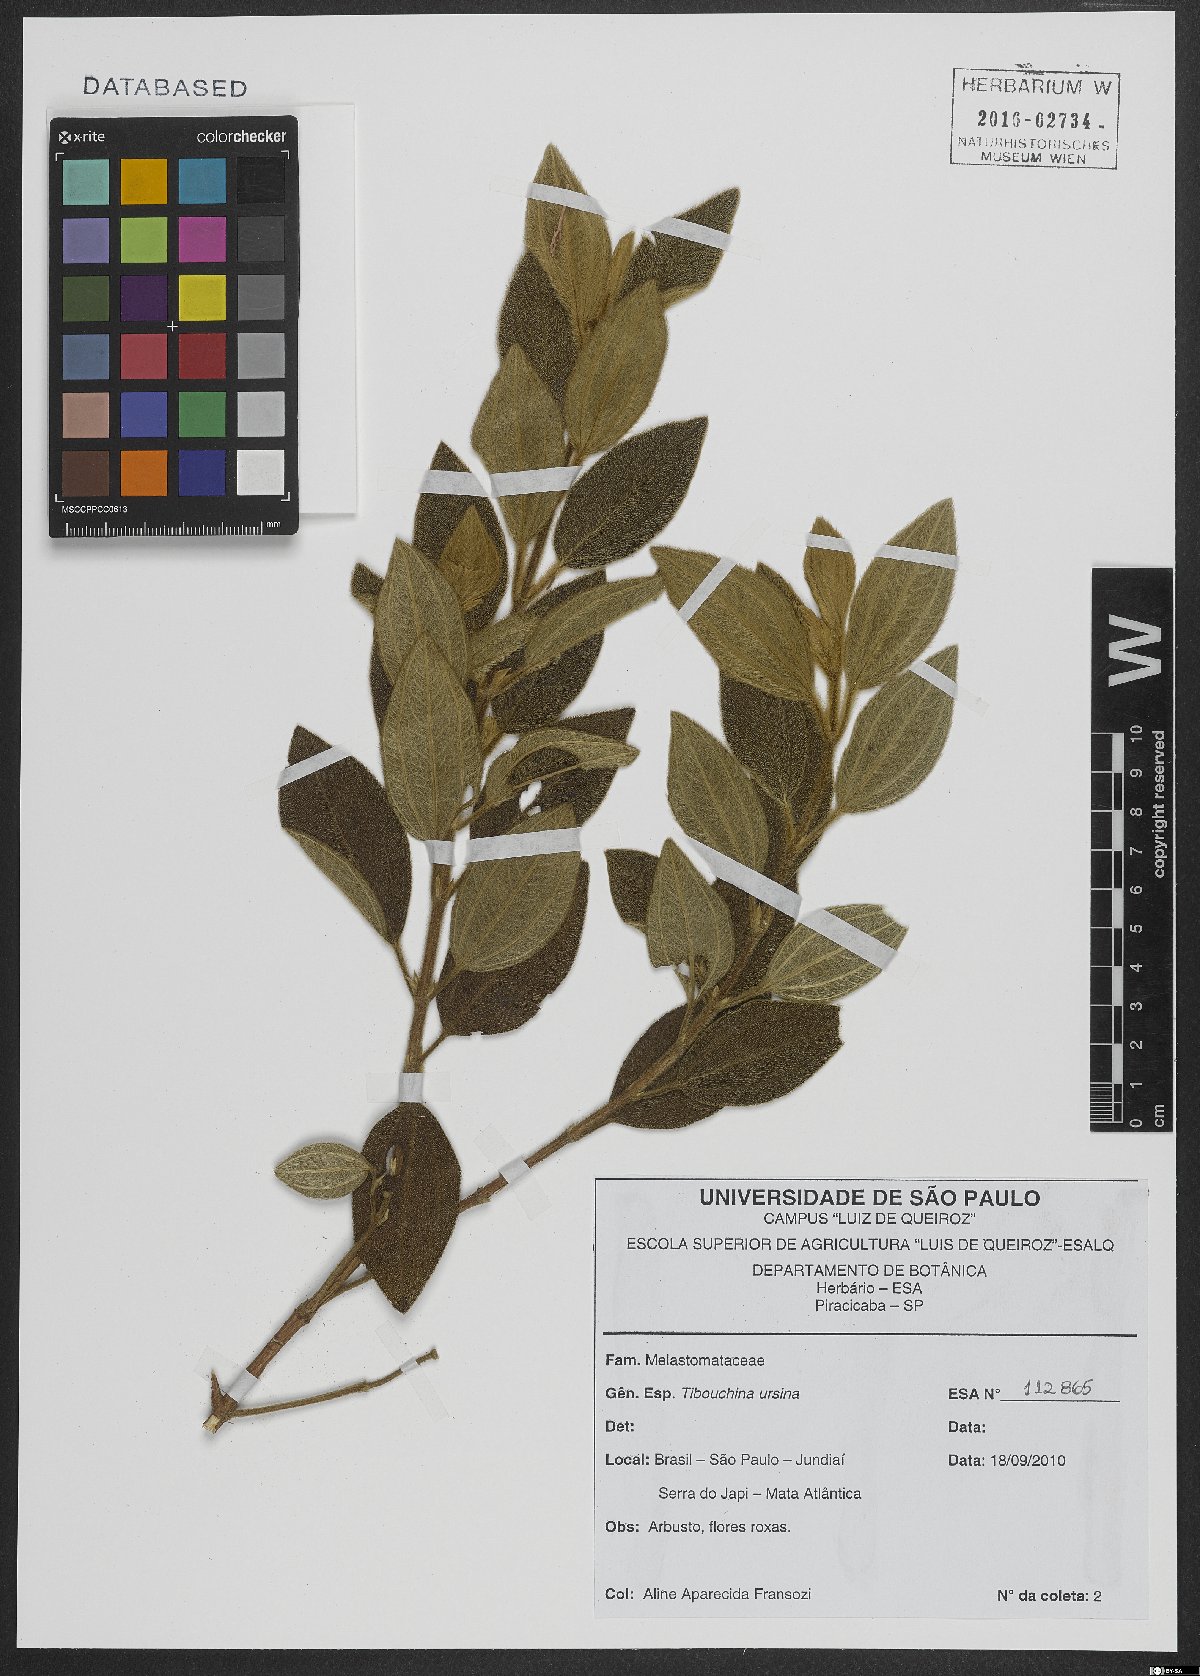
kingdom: Plantae
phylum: Tracheophyta
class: Magnoliopsida
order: Myrtales
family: Melastomataceae
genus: Pleroma
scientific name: Pleroma ursinum
